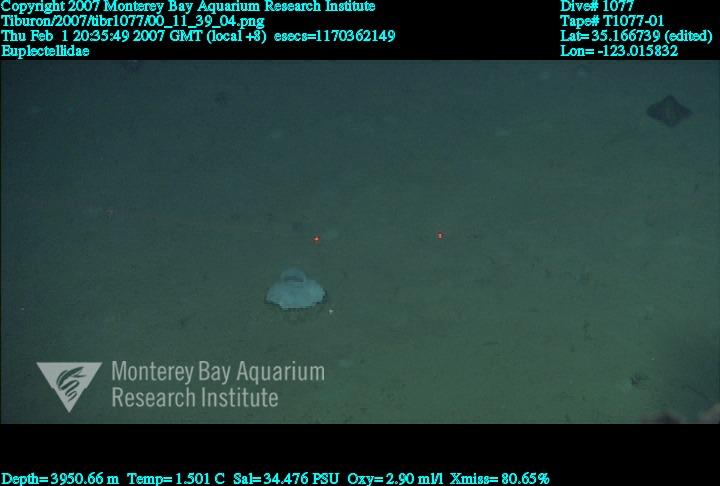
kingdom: Animalia
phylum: Porifera
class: Hexactinellida
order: Lyssacinosida
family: Euplectellidae
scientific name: Euplectellidae
